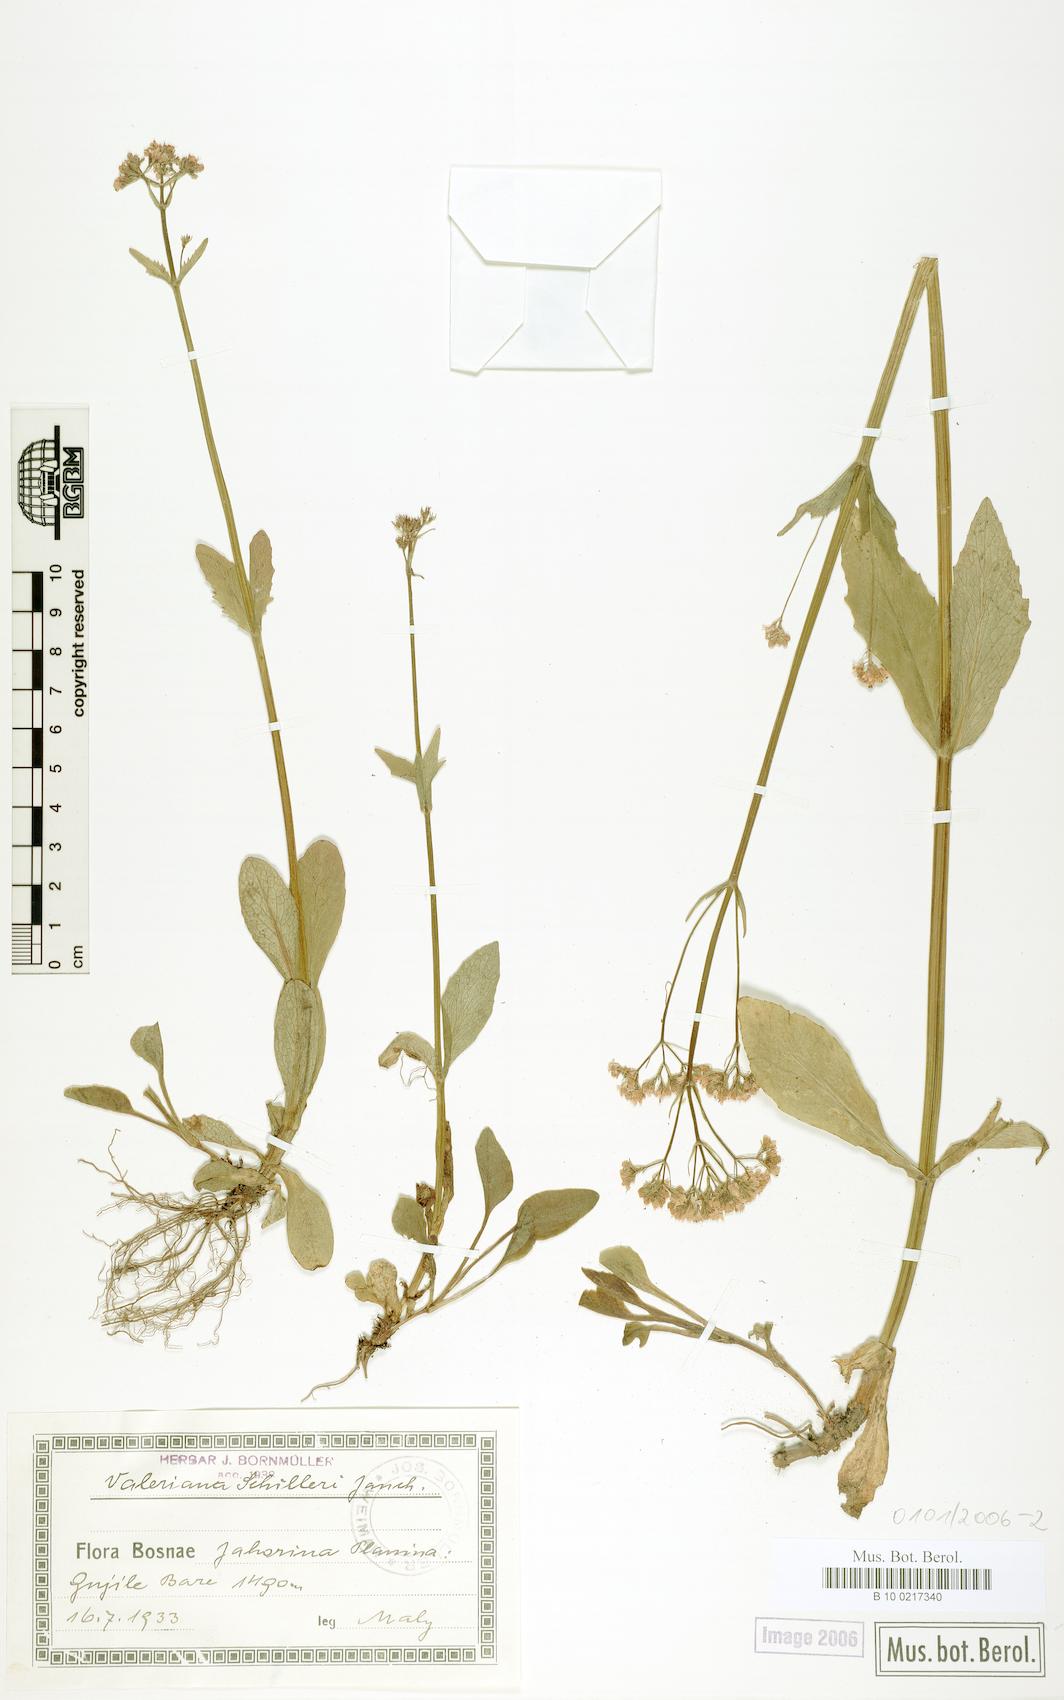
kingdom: Plantae
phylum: Tracheophyta
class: Magnoliopsida
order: Dipsacales
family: Caprifoliaceae
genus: Valeriana
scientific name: Valeriana dioica
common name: Marsh valerian
